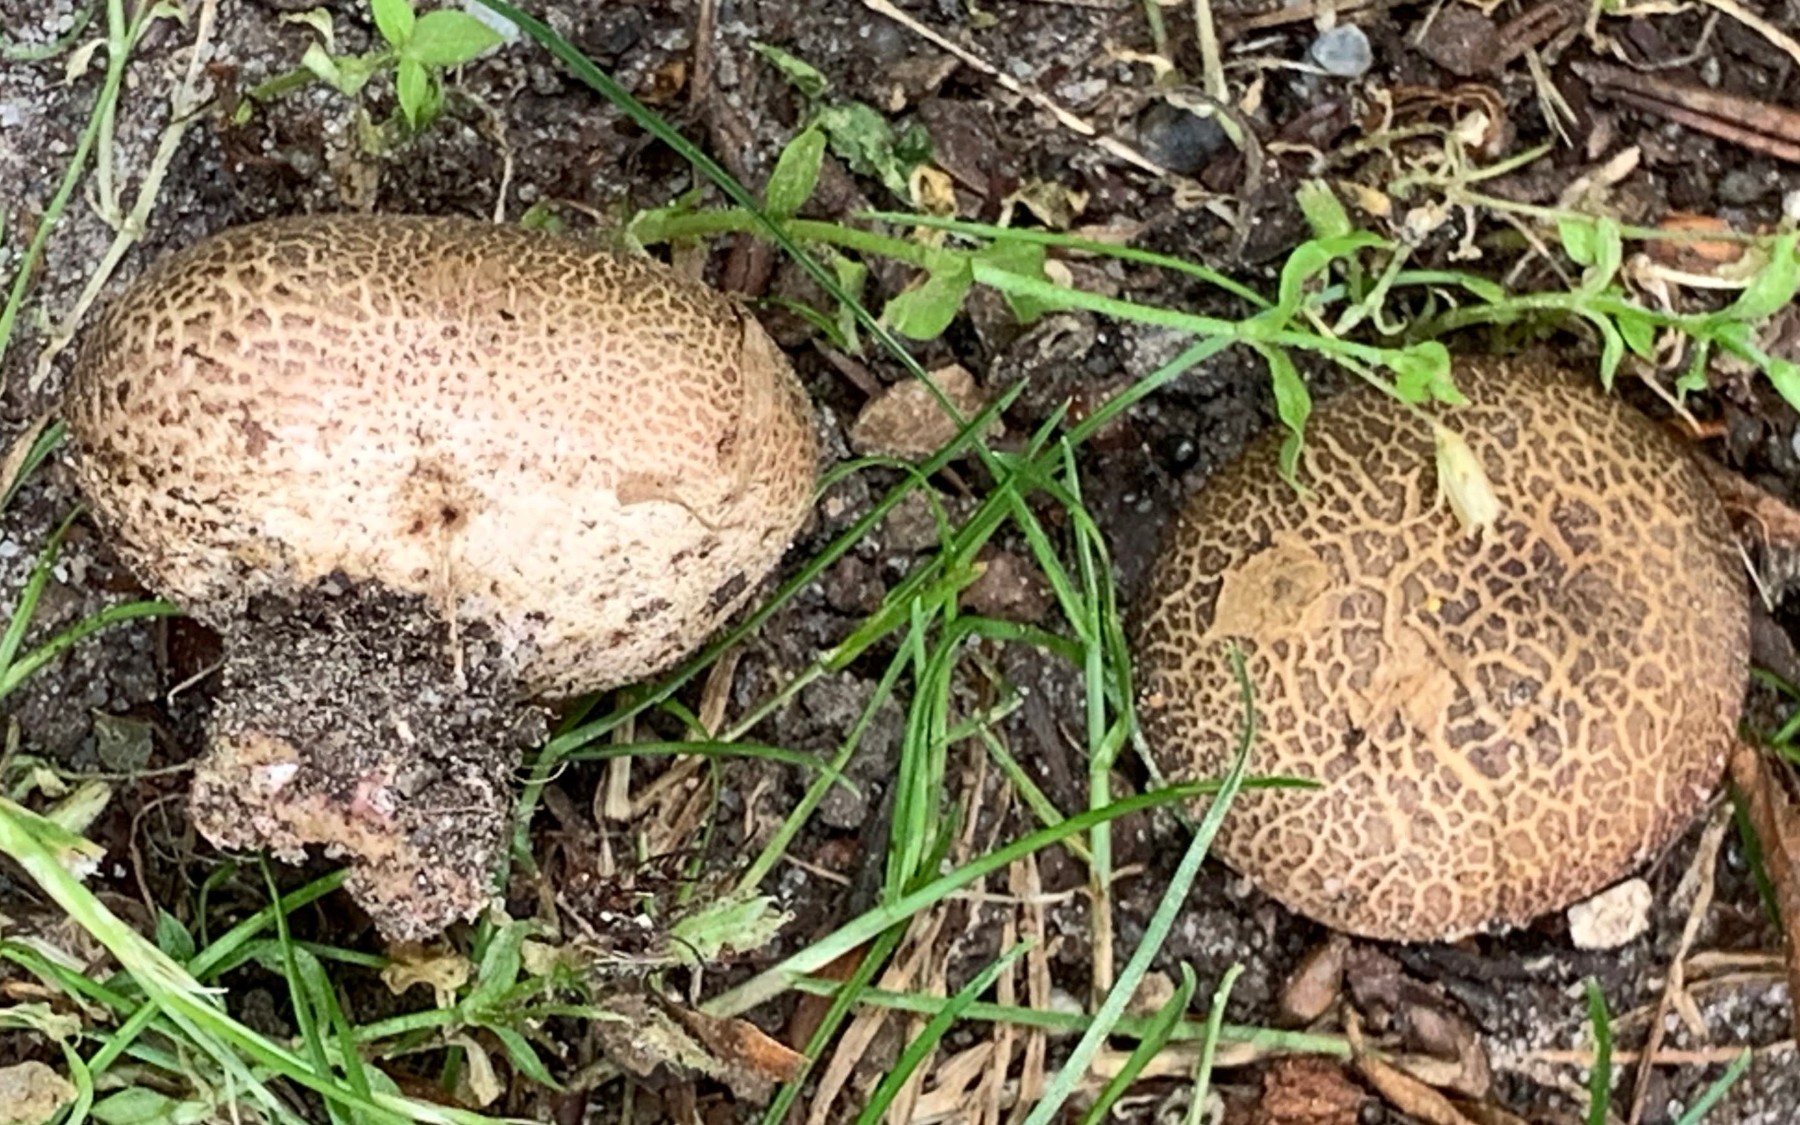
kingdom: Fungi
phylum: Basidiomycota
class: Agaricomycetes
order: Boletales
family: Sclerodermataceae
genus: Scleroderma
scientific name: Scleroderma
